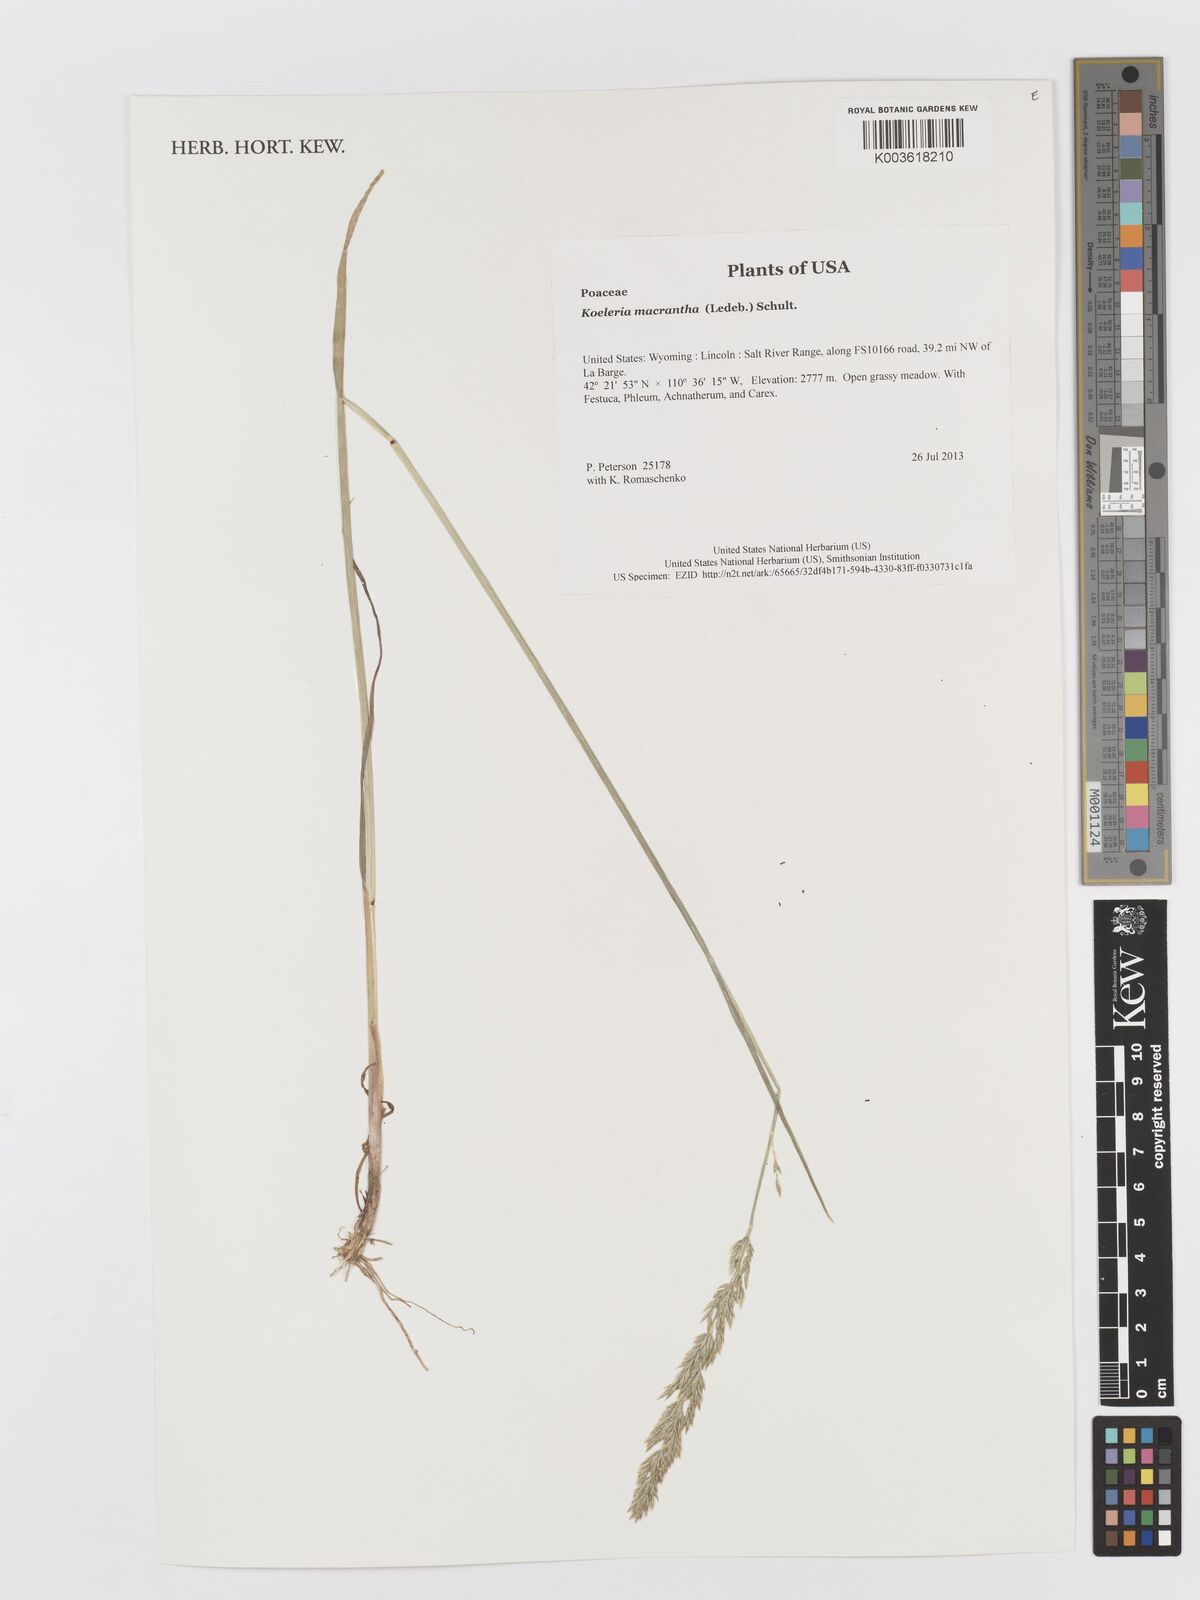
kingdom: Plantae
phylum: Tracheophyta
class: Liliopsida
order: Poales
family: Poaceae
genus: Koeleria
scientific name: Koeleria macrantha
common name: Crested hair-grass
